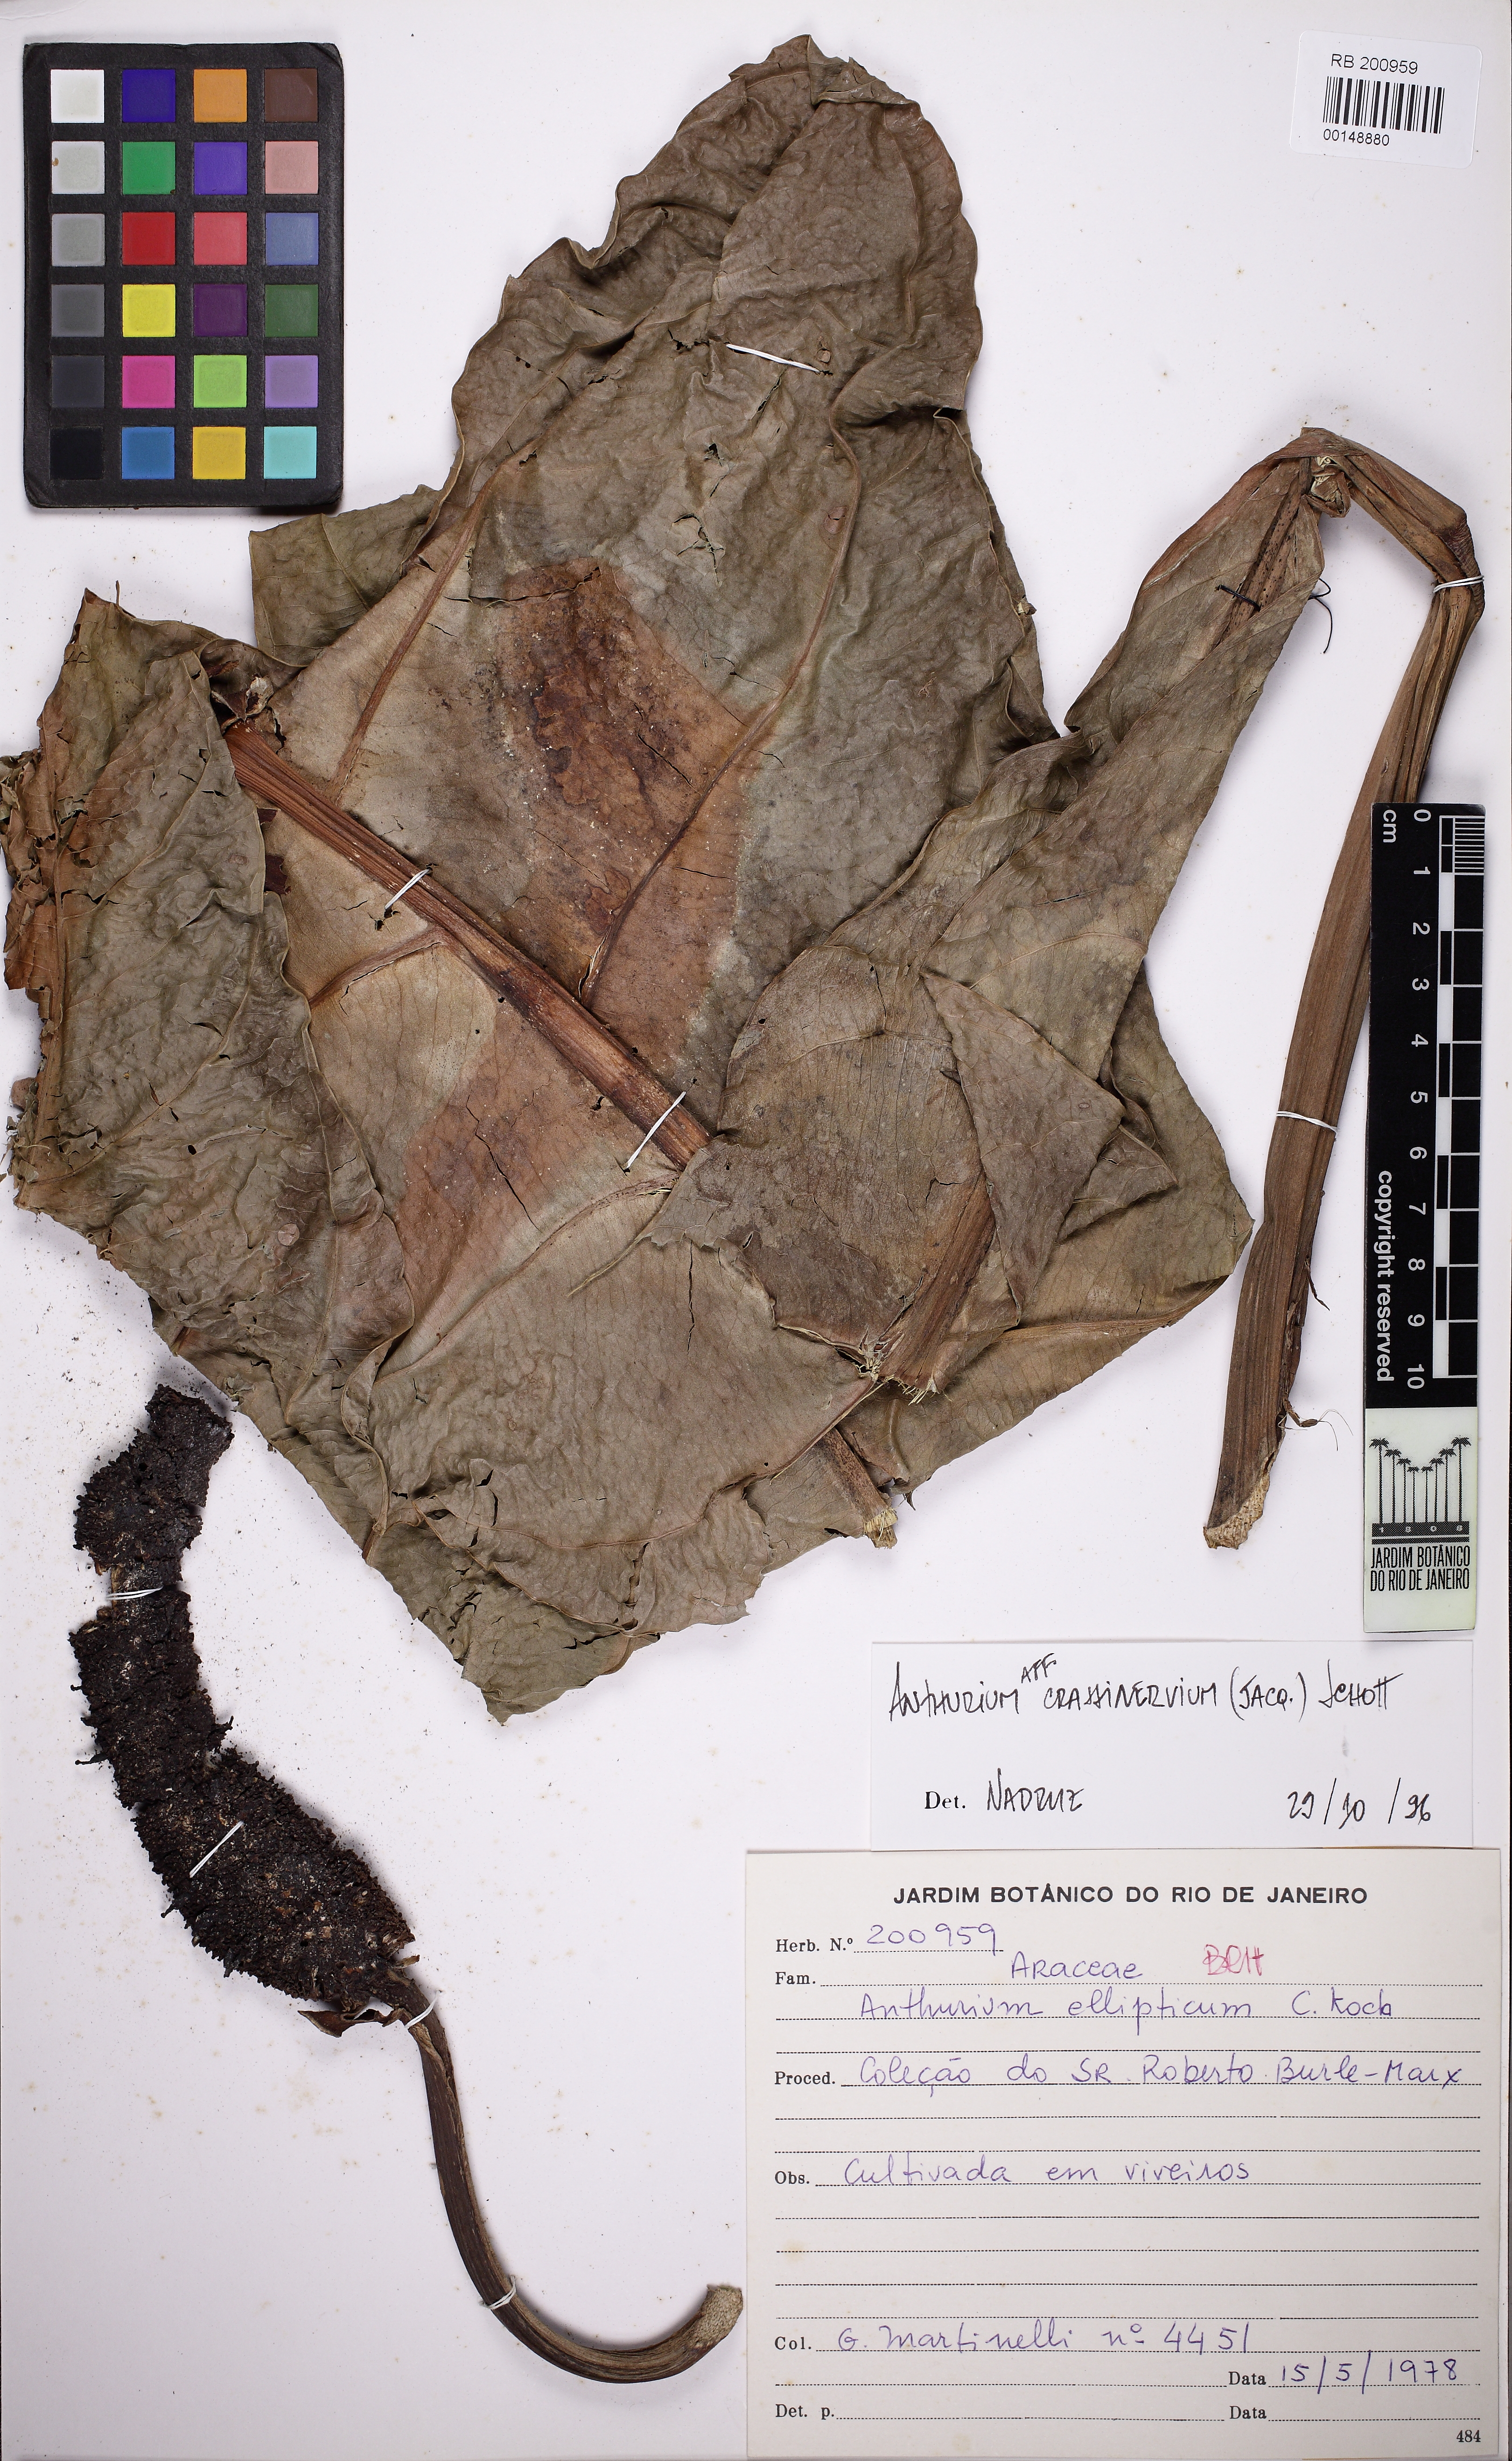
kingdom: Plantae
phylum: Tracheophyta
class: Liliopsida
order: Alismatales
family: Araceae
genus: Anthurium
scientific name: Anthurium crassinervium
